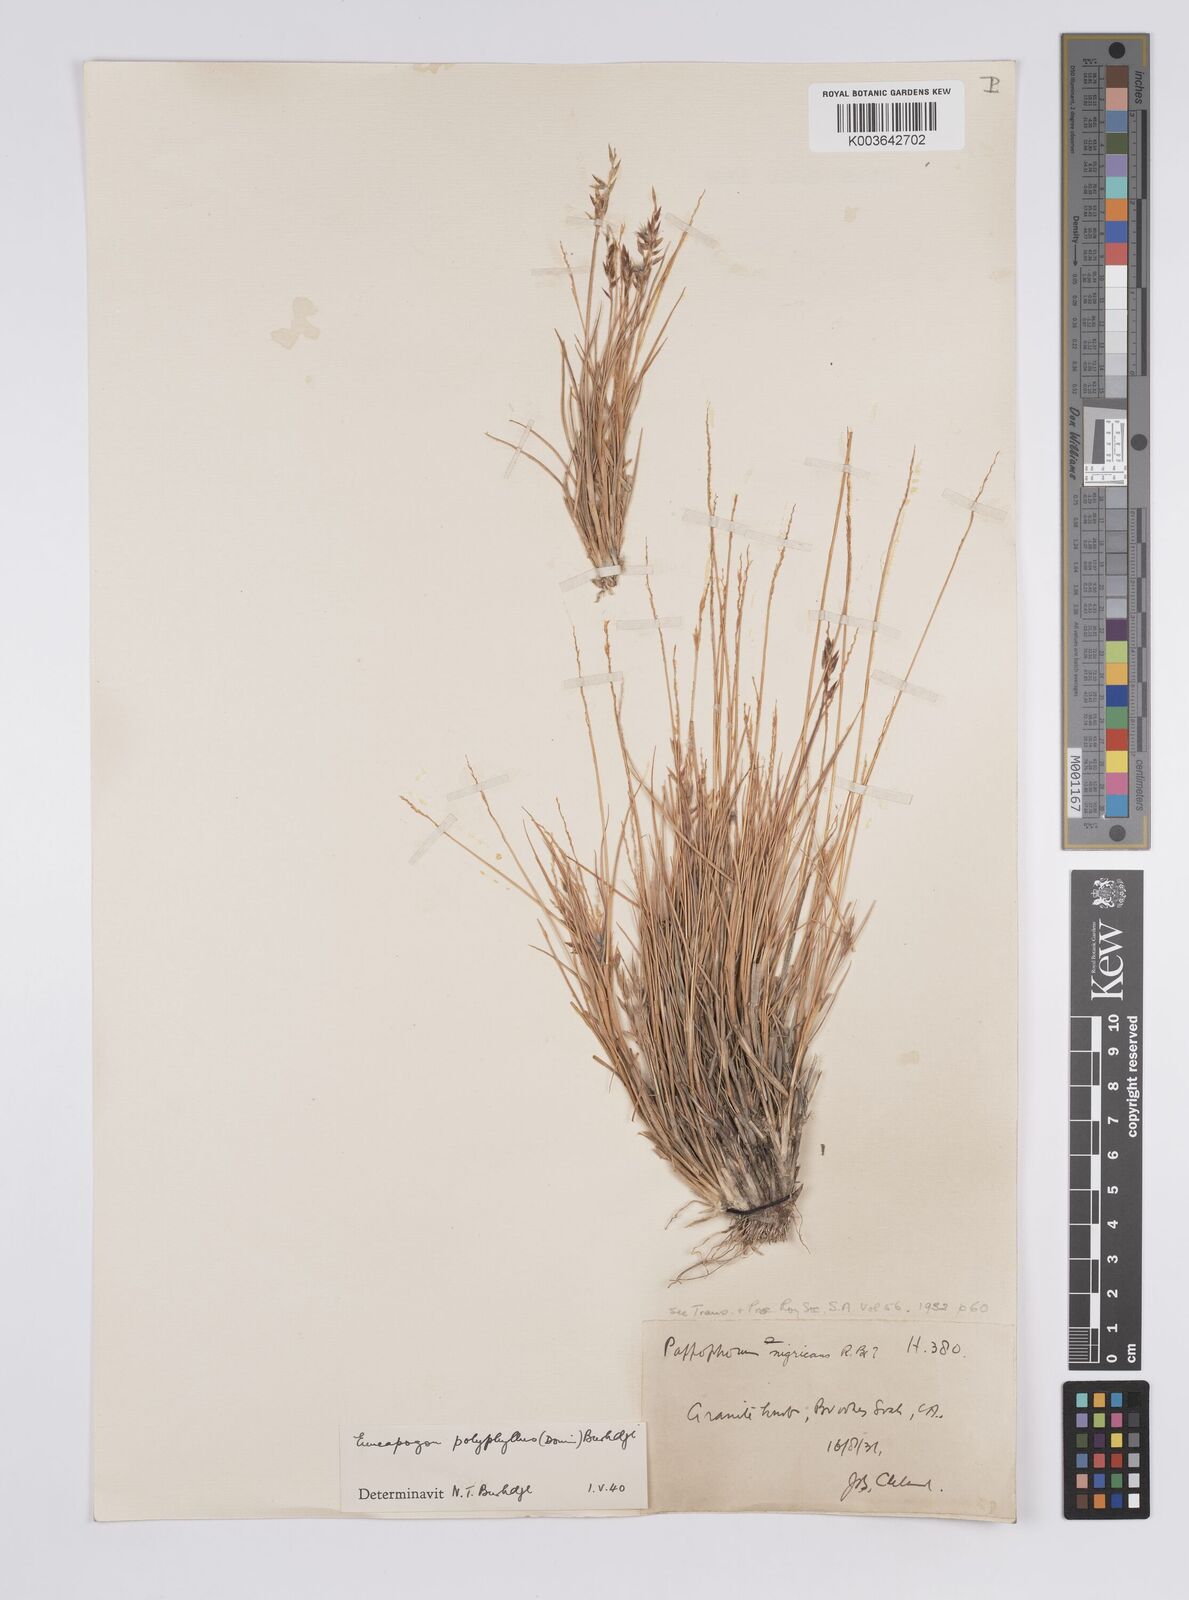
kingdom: Plantae
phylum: Tracheophyta
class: Liliopsida
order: Poales
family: Poaceae
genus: Enneapogon
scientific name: Enneapogon polyphyllus
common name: Leafy nineawn
